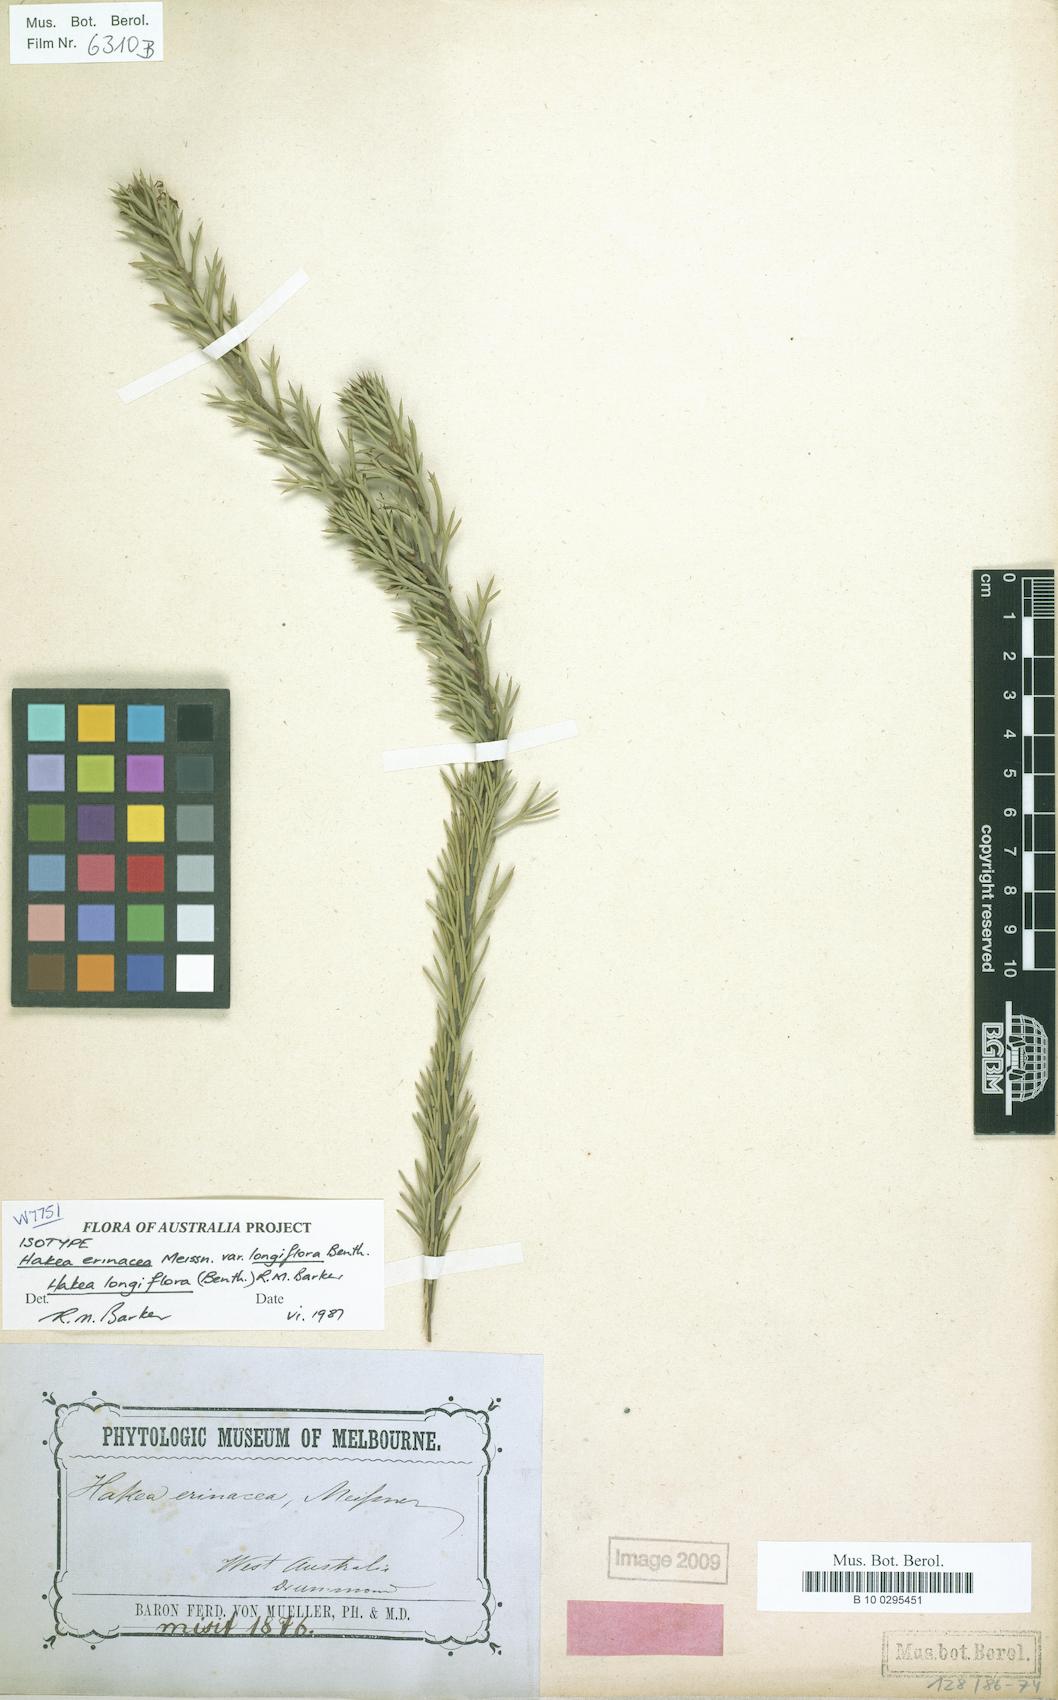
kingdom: Plantae
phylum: Tracheophyta
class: Magnoliopsida
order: Proteales
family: Proteaceae
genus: Hakea
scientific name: Hakea longiflora
